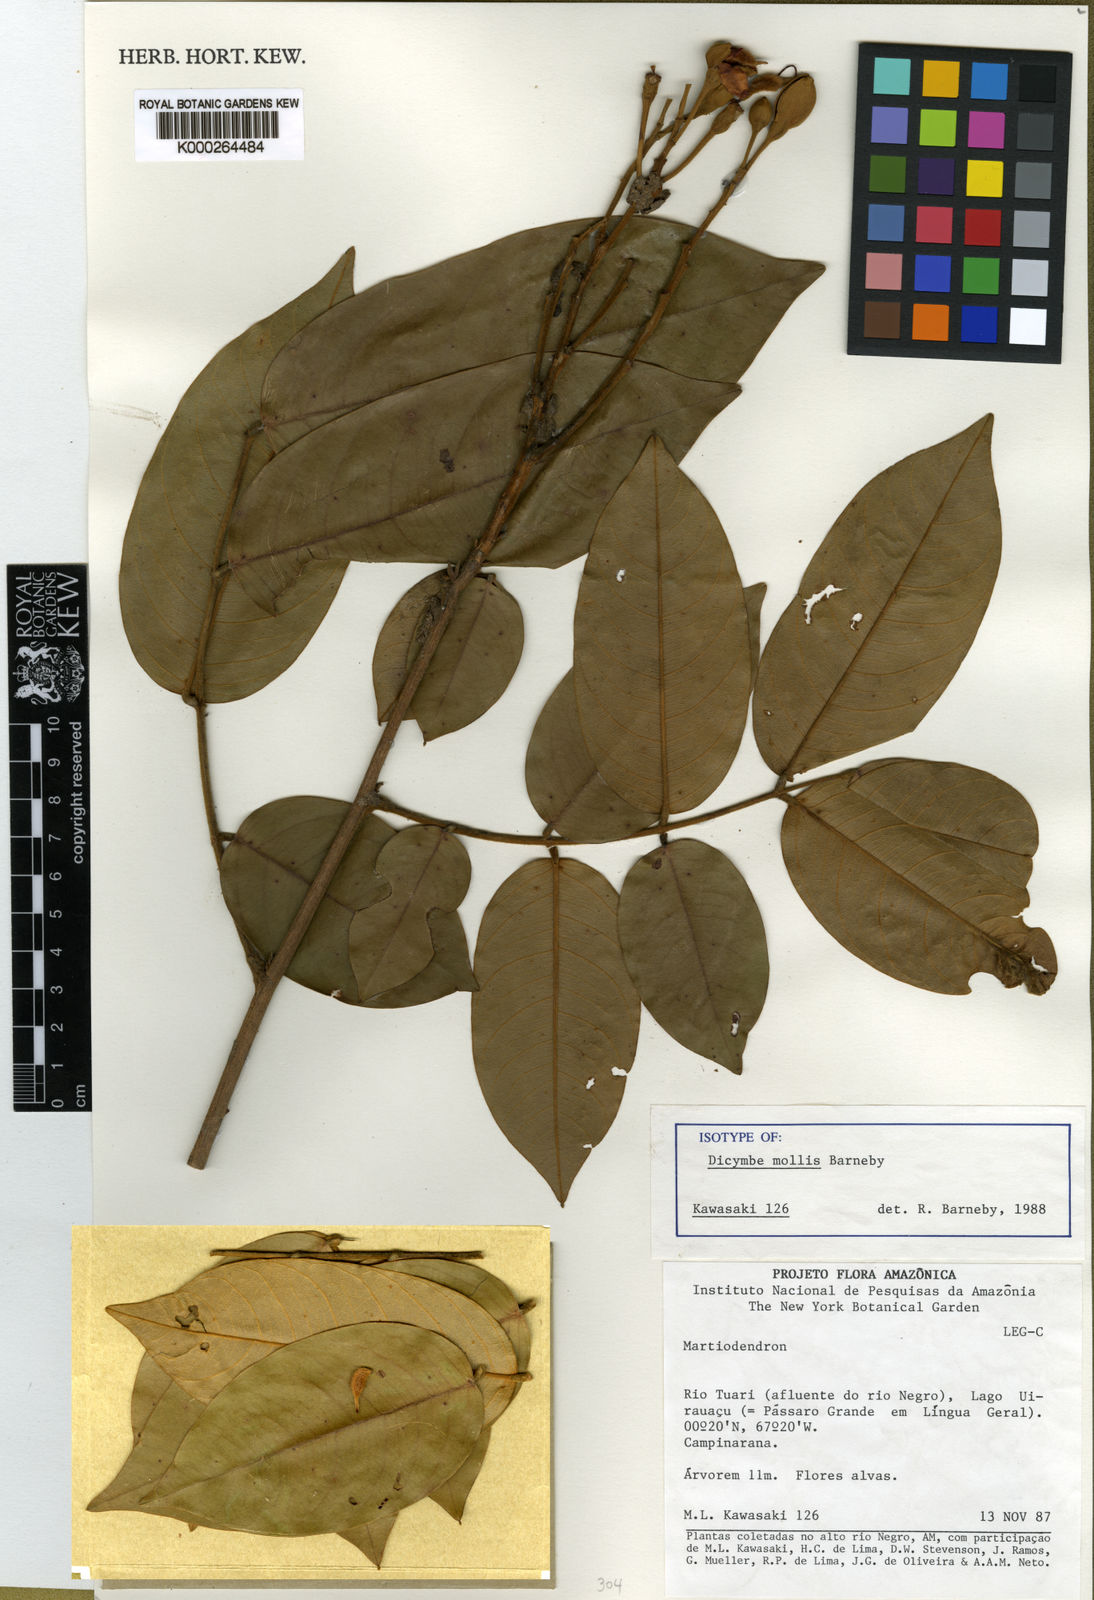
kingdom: Plantae
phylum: Tracheophyta
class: Magnoliopsida
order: Fabales
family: Fabaceae
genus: Dicymbe
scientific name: Dicymbe mollis
